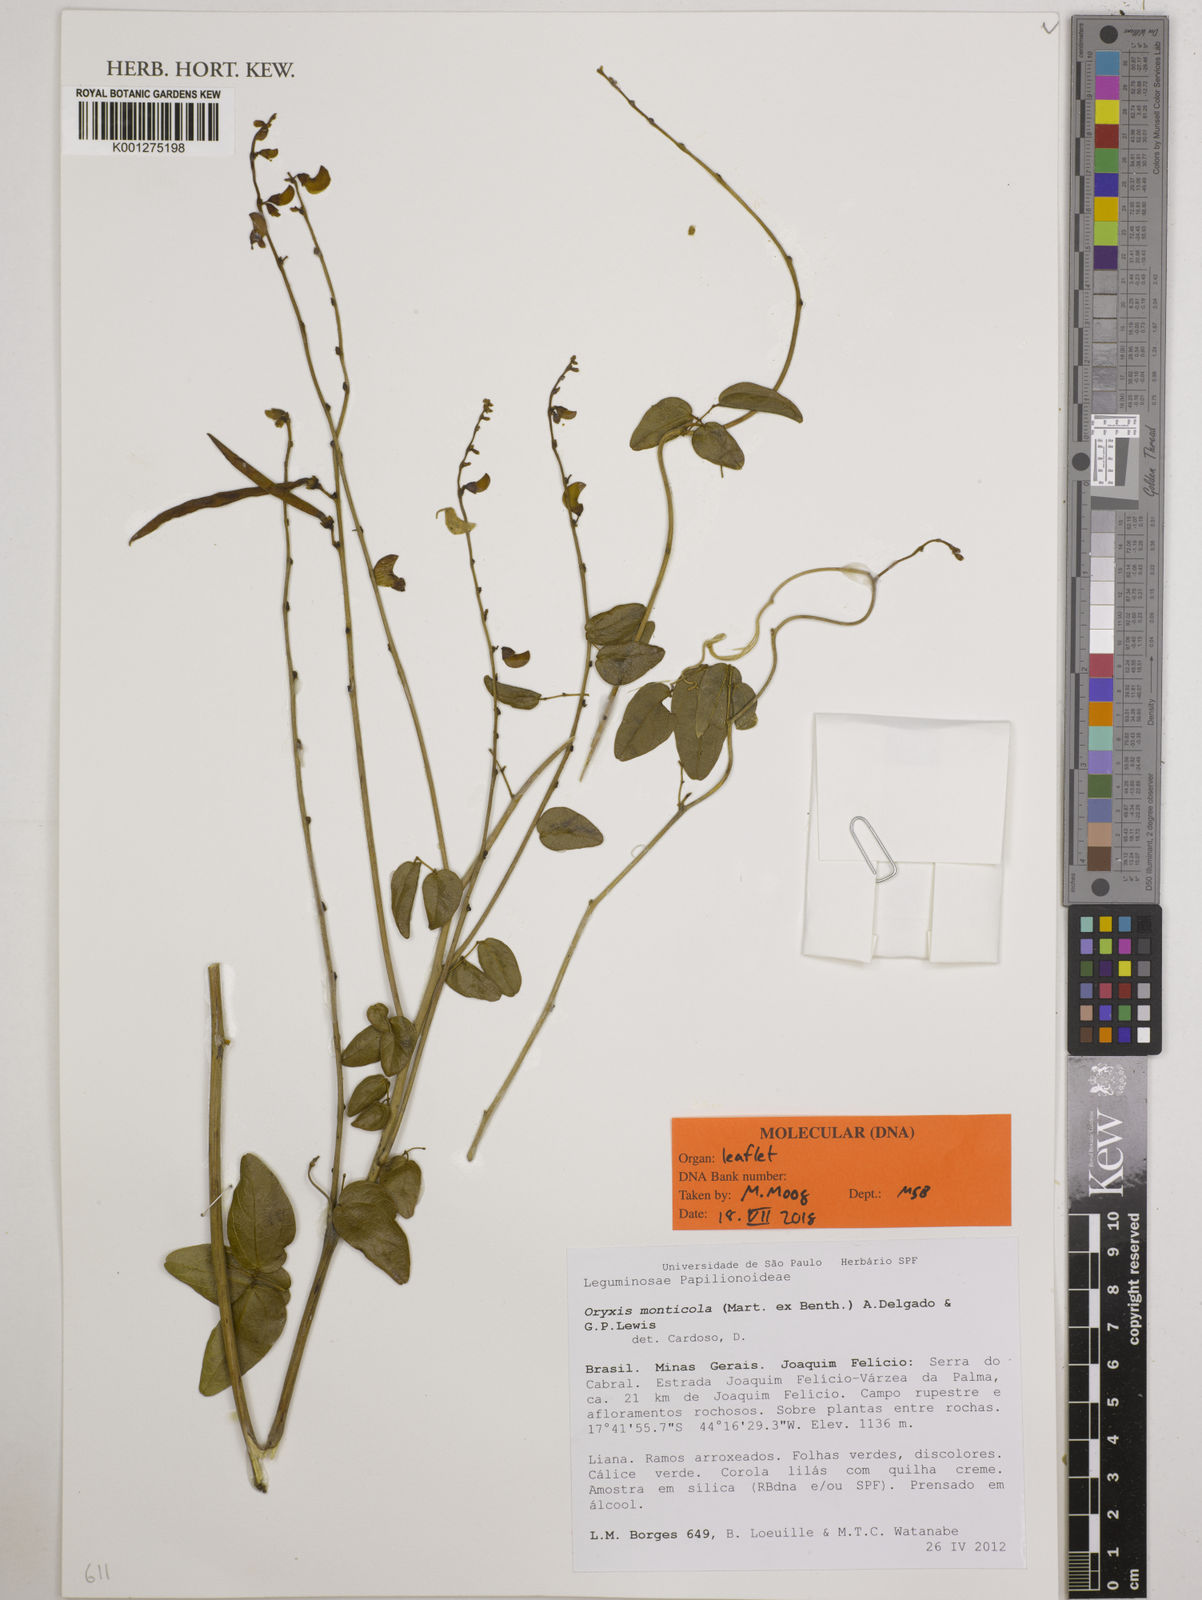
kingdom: Plantae
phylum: Tracheophyta
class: Magnoliopsida
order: Fabales
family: Fabaceae
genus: Dolichopsis
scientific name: Dolichopsis monticola
